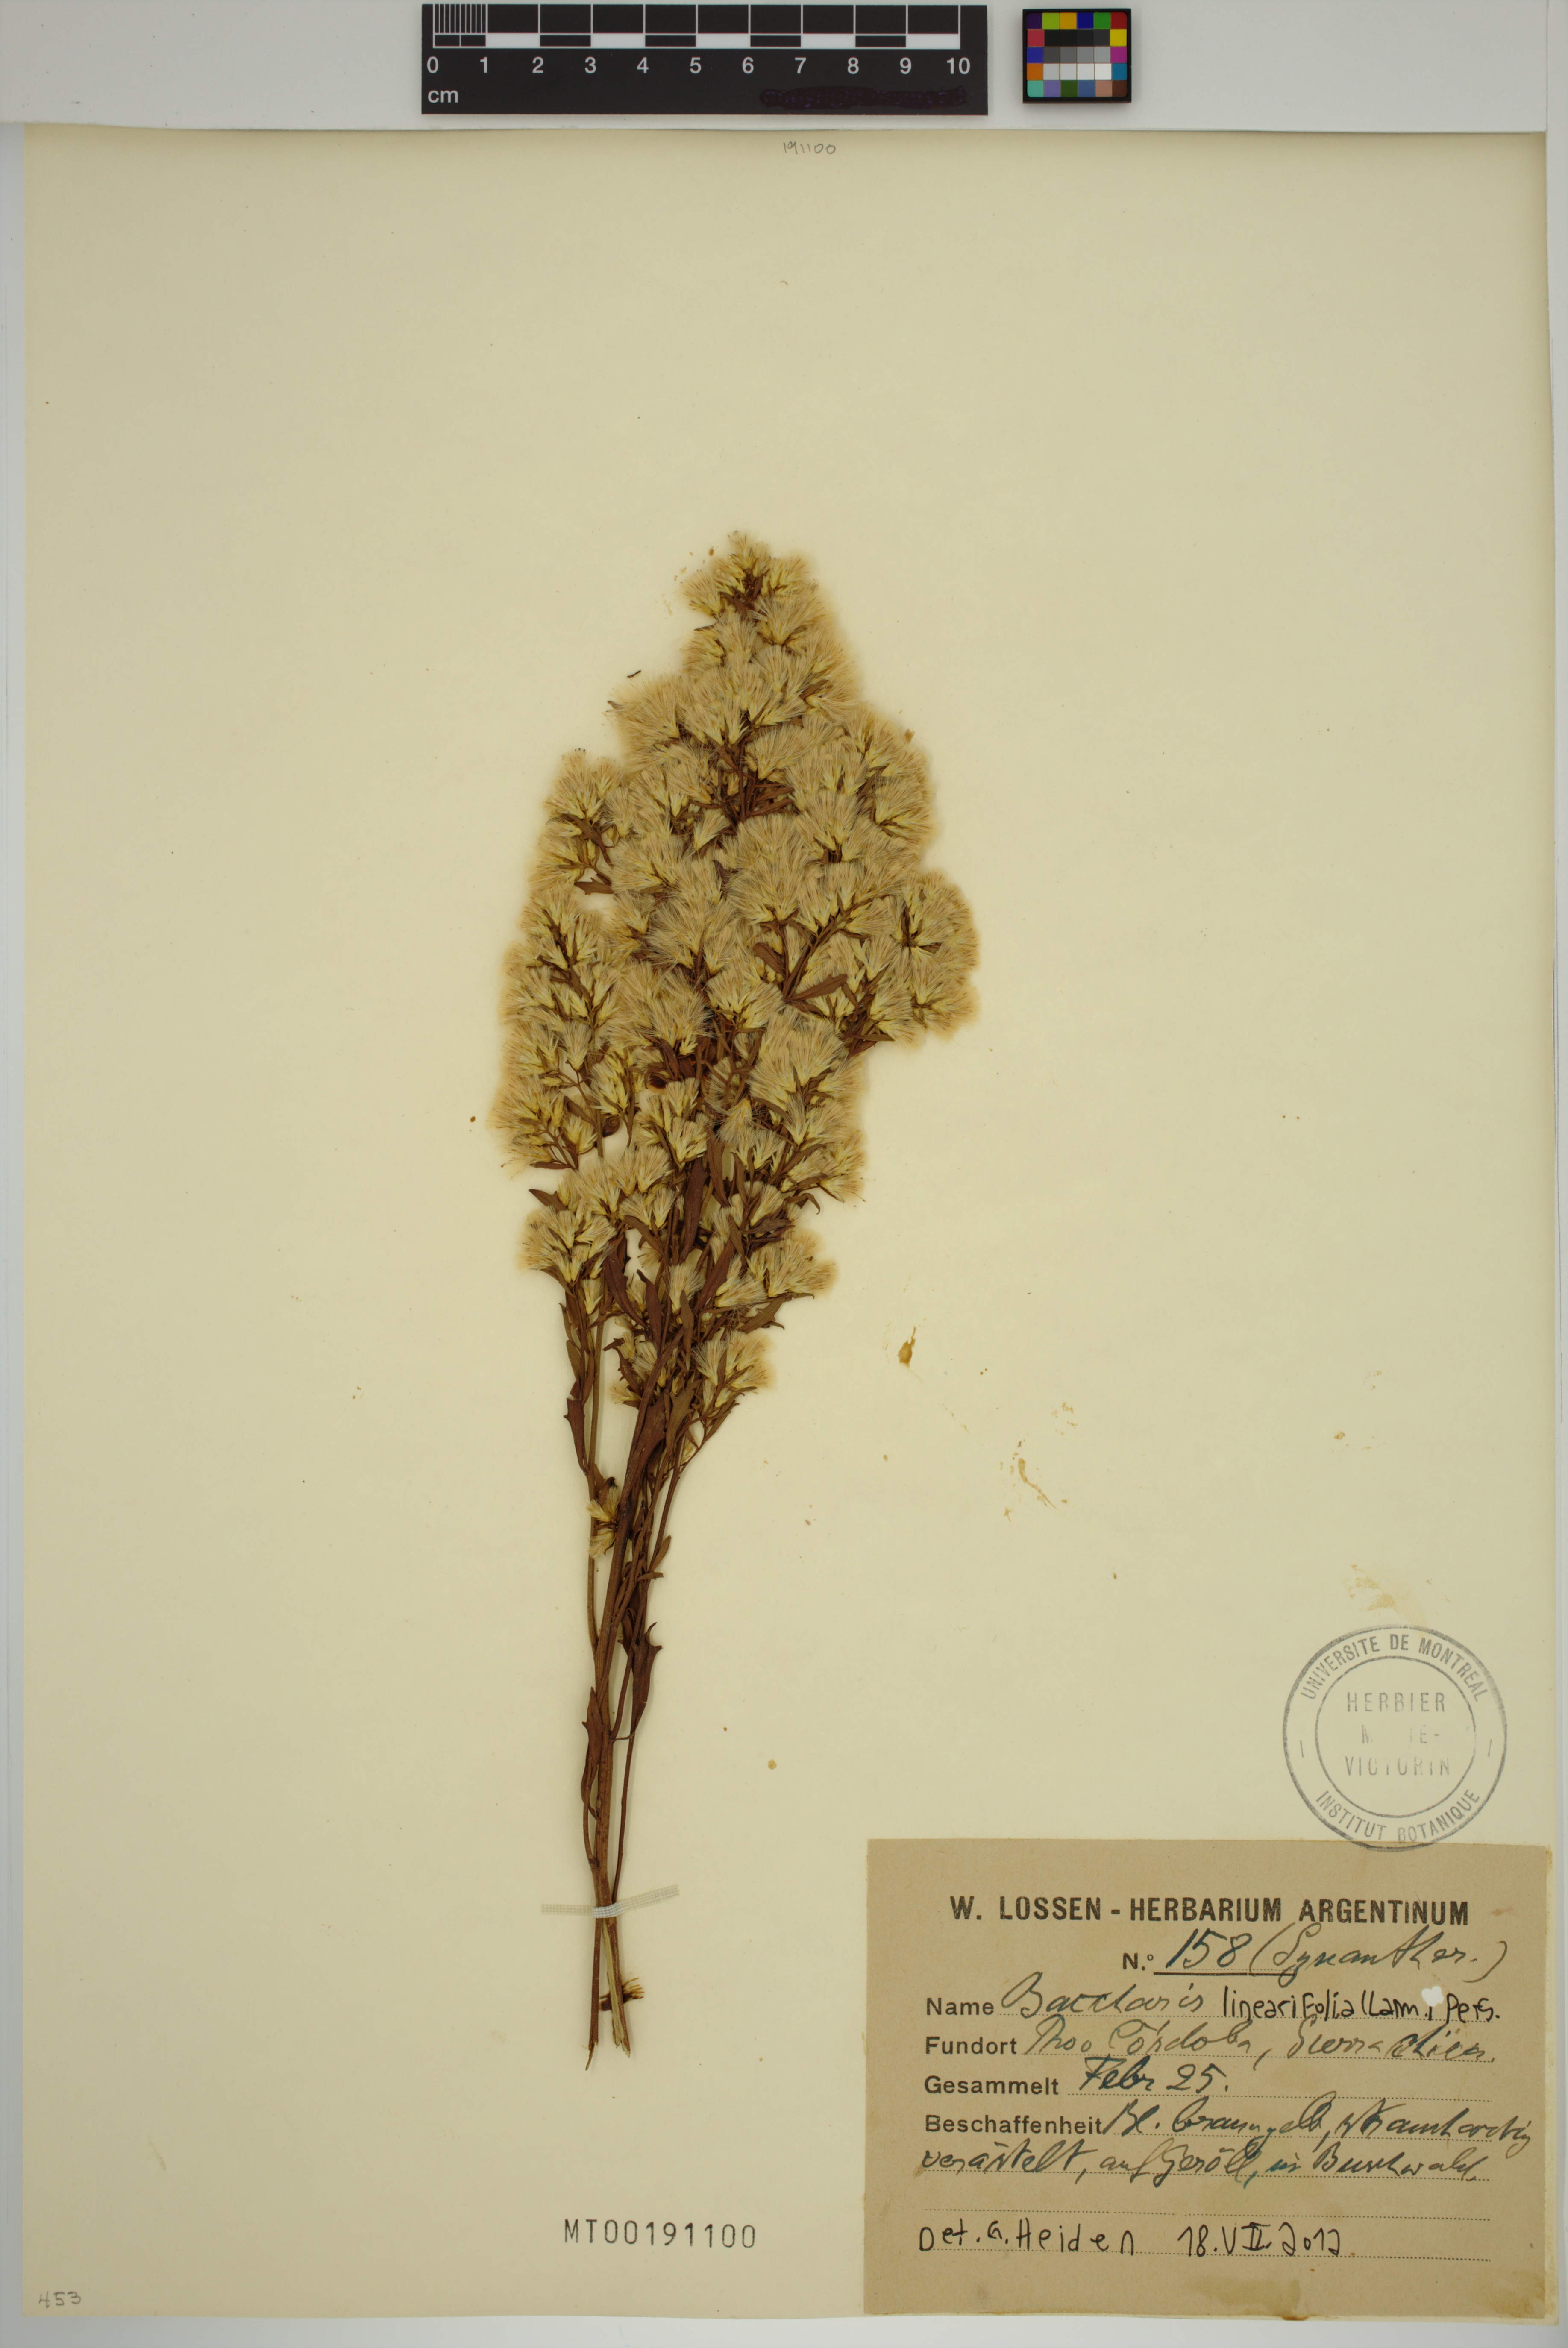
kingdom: Plantae
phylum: Tracheophyta
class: Magnoliopsida
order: Asterales
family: Asteraceae
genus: Baccharis
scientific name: Baccharis linearifolia
